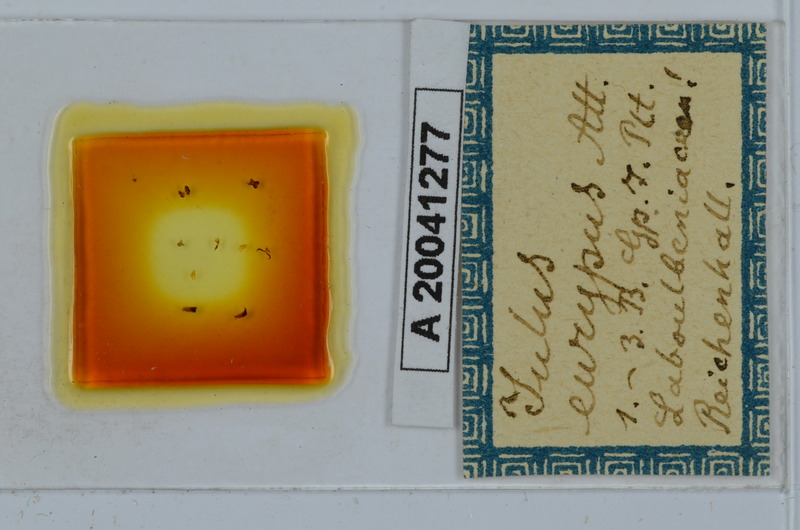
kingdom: Animalia
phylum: Arthropoda
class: Diplopoda
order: Julida
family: Julidae
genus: Pachypodoiulus
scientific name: Pachypodoiulus eurypus
